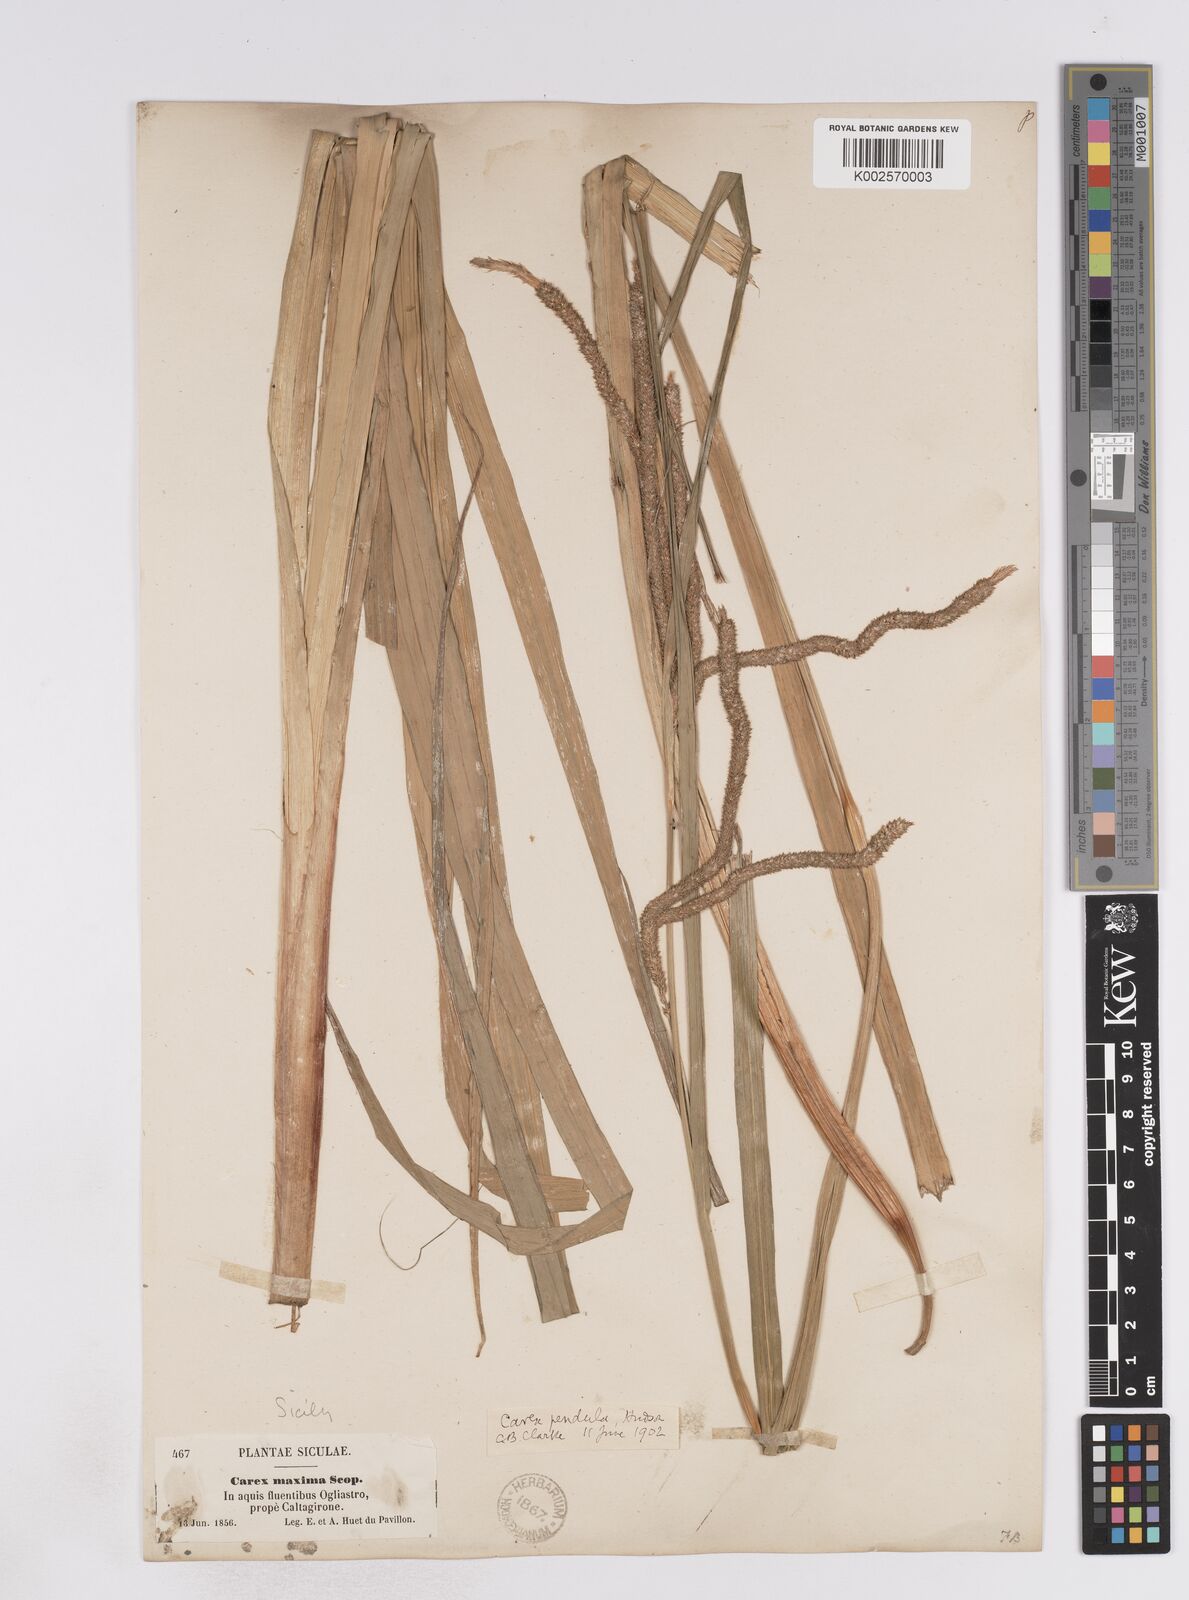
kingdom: Plantae
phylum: Tracheophyta
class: Liliopsida
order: Poales
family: Cyperaceae
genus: Carex
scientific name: Carex pendula
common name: Pendulous sedge
